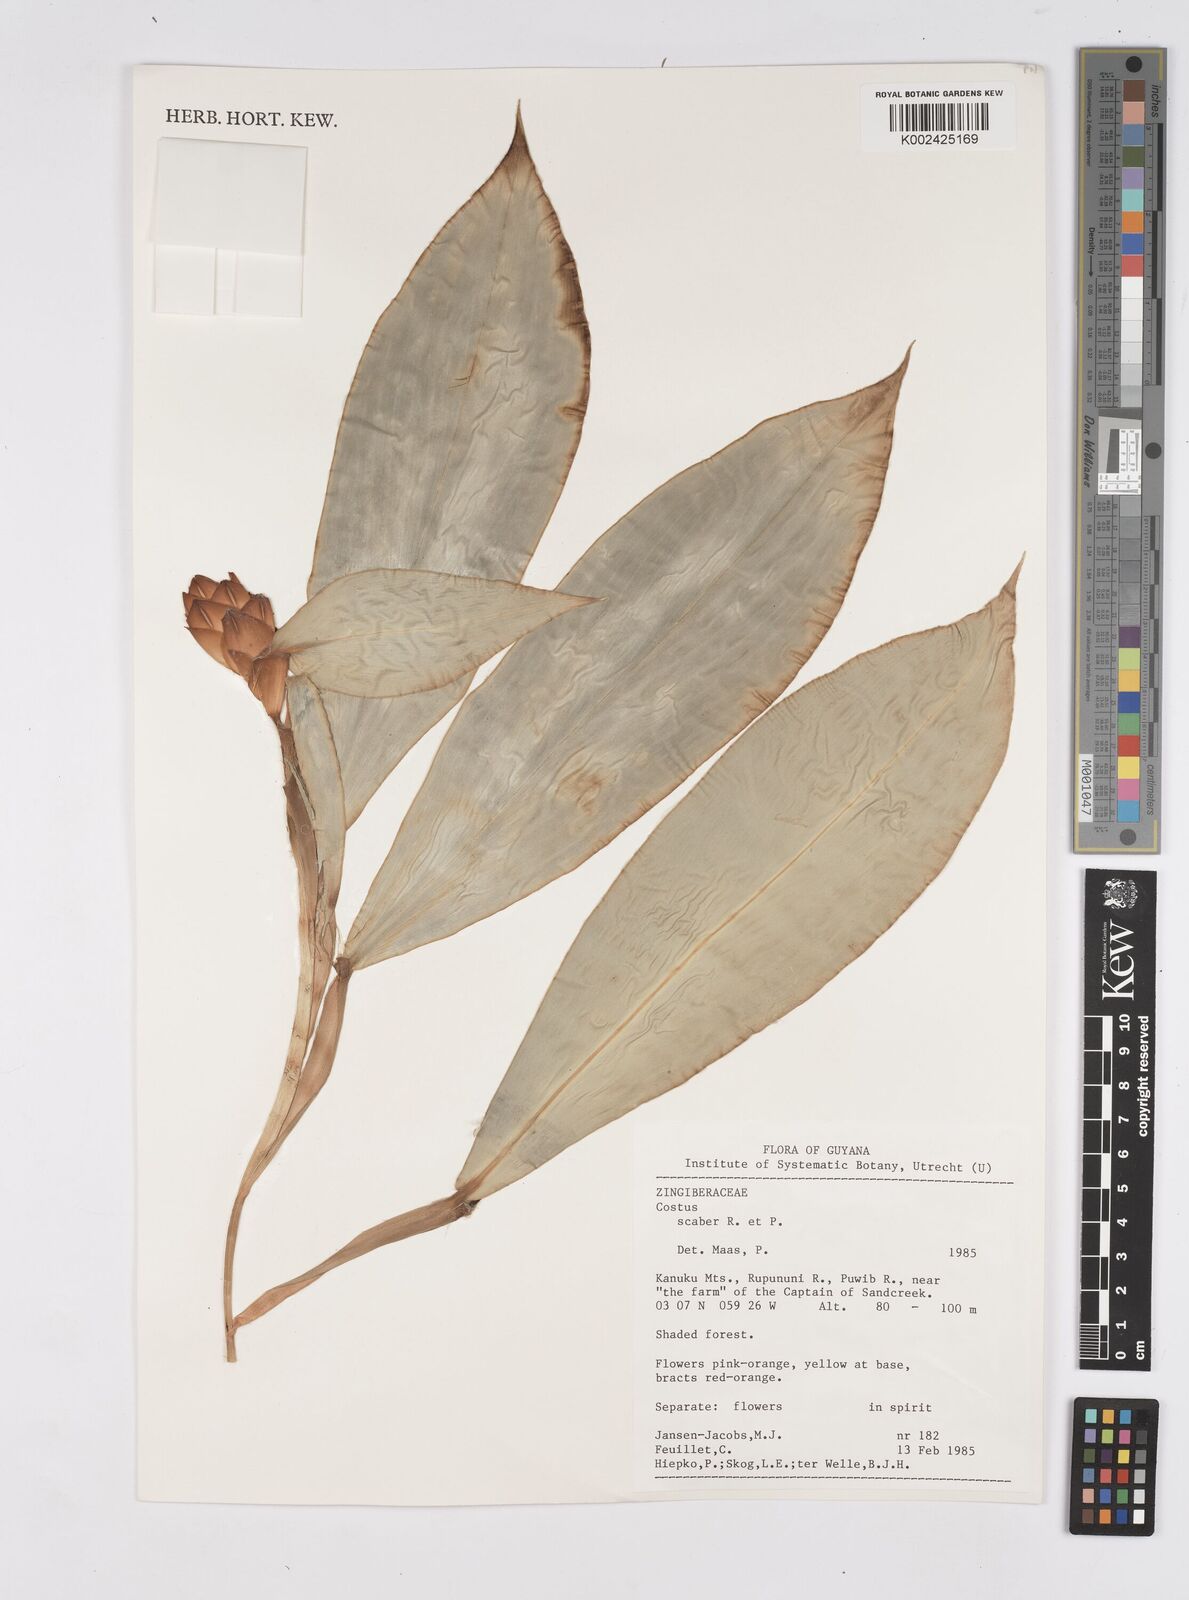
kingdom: Plantae
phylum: Tracheophyta
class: Liliopsida
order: Zingiberales
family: Costaceae
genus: Costus
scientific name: Costus scaber
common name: Spiral head ginger
